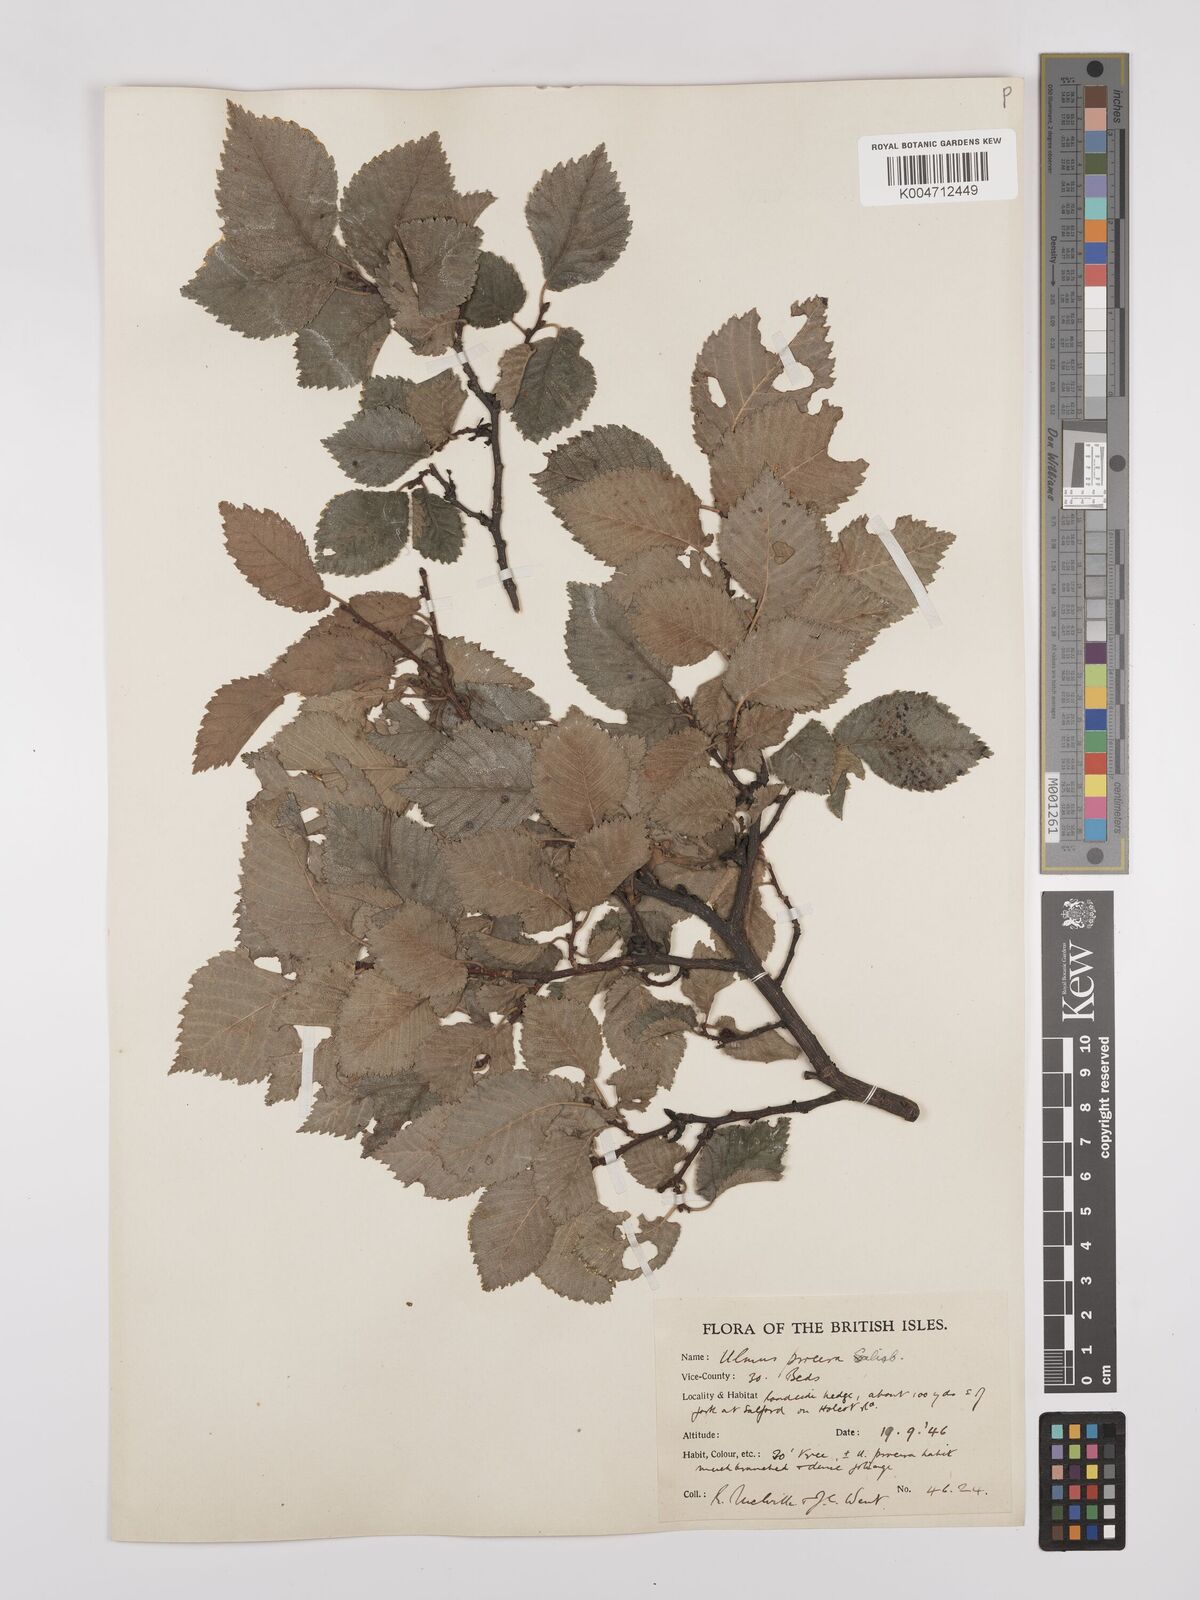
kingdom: Plantae
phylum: Tracheophyta
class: Magnoliopsida
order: Rosales
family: Ulmaceae
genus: Ulmus
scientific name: Ulmus minor
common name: Small-leaved elm
